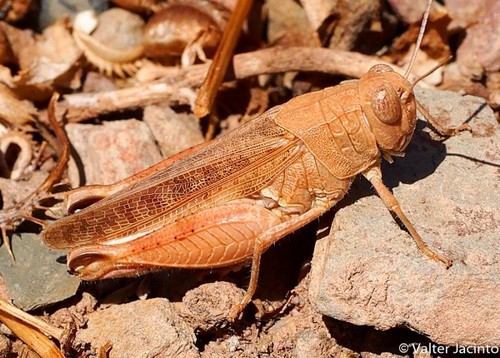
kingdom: Animalia
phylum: Arthropoda
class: Insecta
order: Orthoptera
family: Acrididae
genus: Calliptamus
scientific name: Calliptamus barbarus
